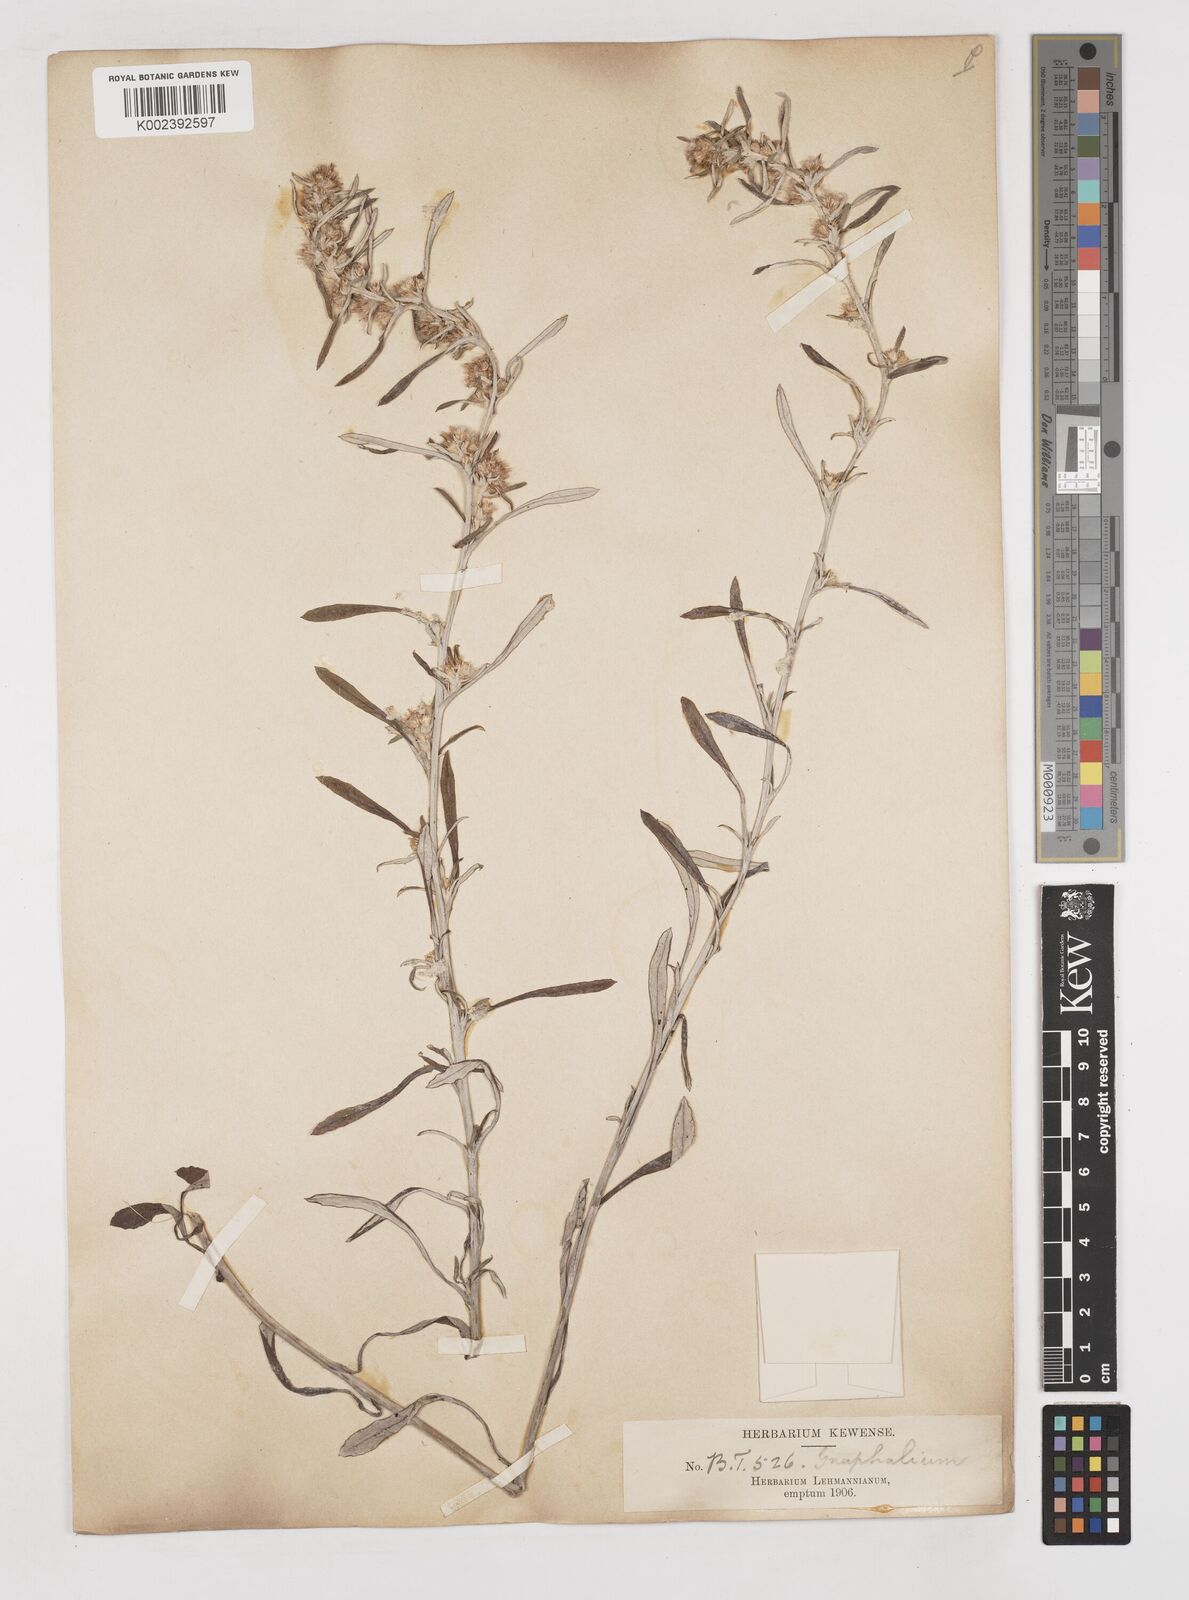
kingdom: Plantae
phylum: Tracheophyta
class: Magnoliopsida
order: Asterales
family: Asteraceae
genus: Gamochaeta
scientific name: Gamochaeta americana
